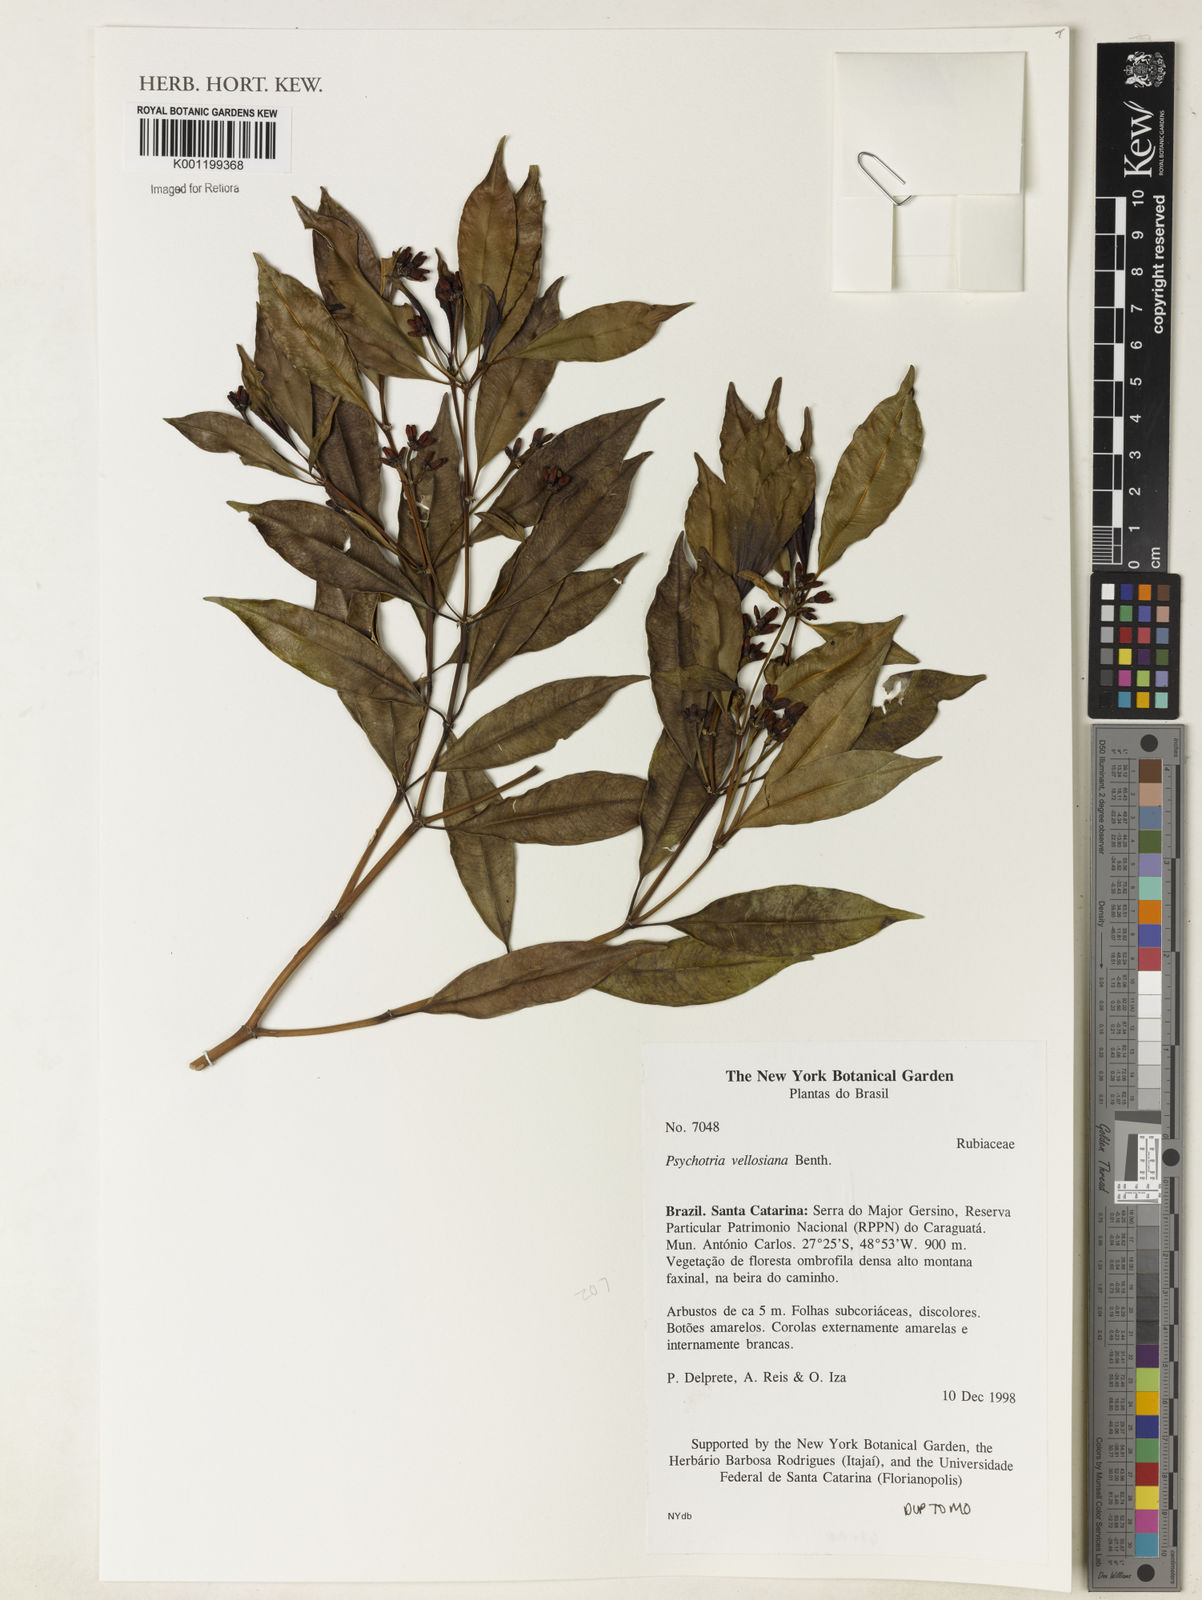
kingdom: Plantae
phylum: Tracheophyta
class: Magnoliopsida
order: Gentianales
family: Rubiaceae
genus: Palicourea
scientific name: Palicourea sessilis
